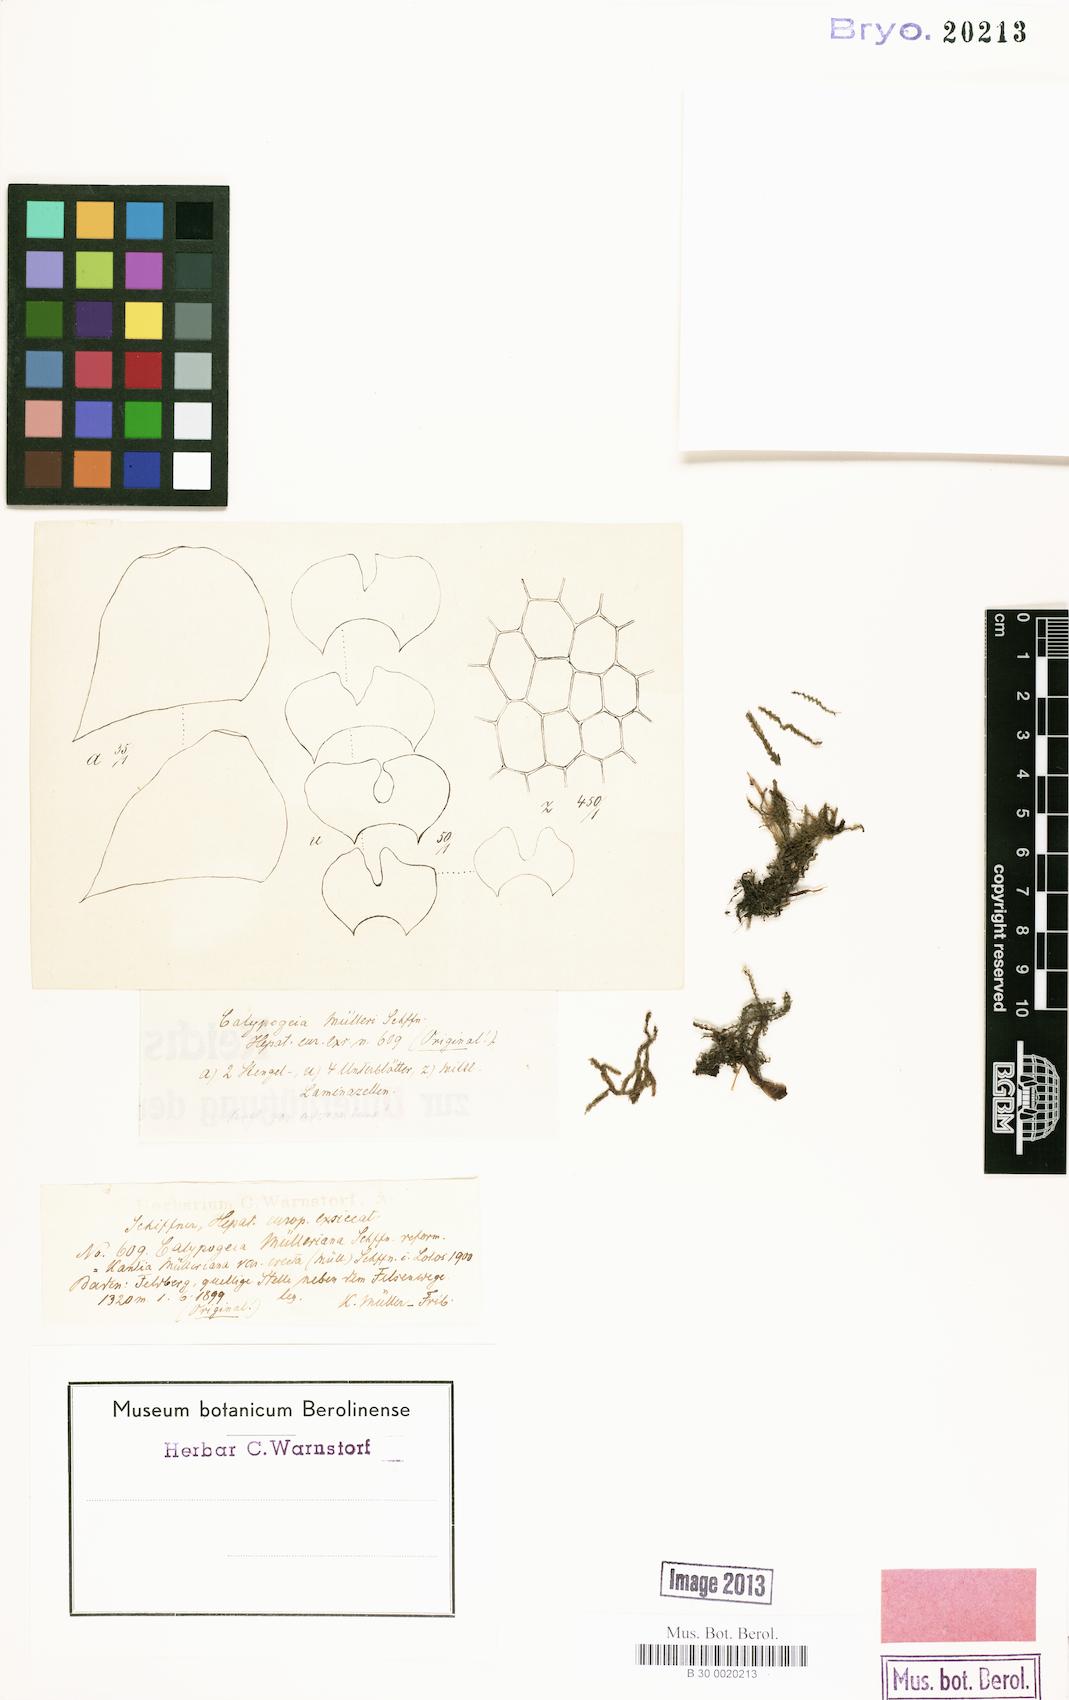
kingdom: Plantae
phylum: Marchantiophyta
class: Jungermanniopsida
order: Jungermanniales
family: Calypogeiaceae
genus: Calypogeia
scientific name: Calypogeia muelleriana
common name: Mueller s pouchwort
